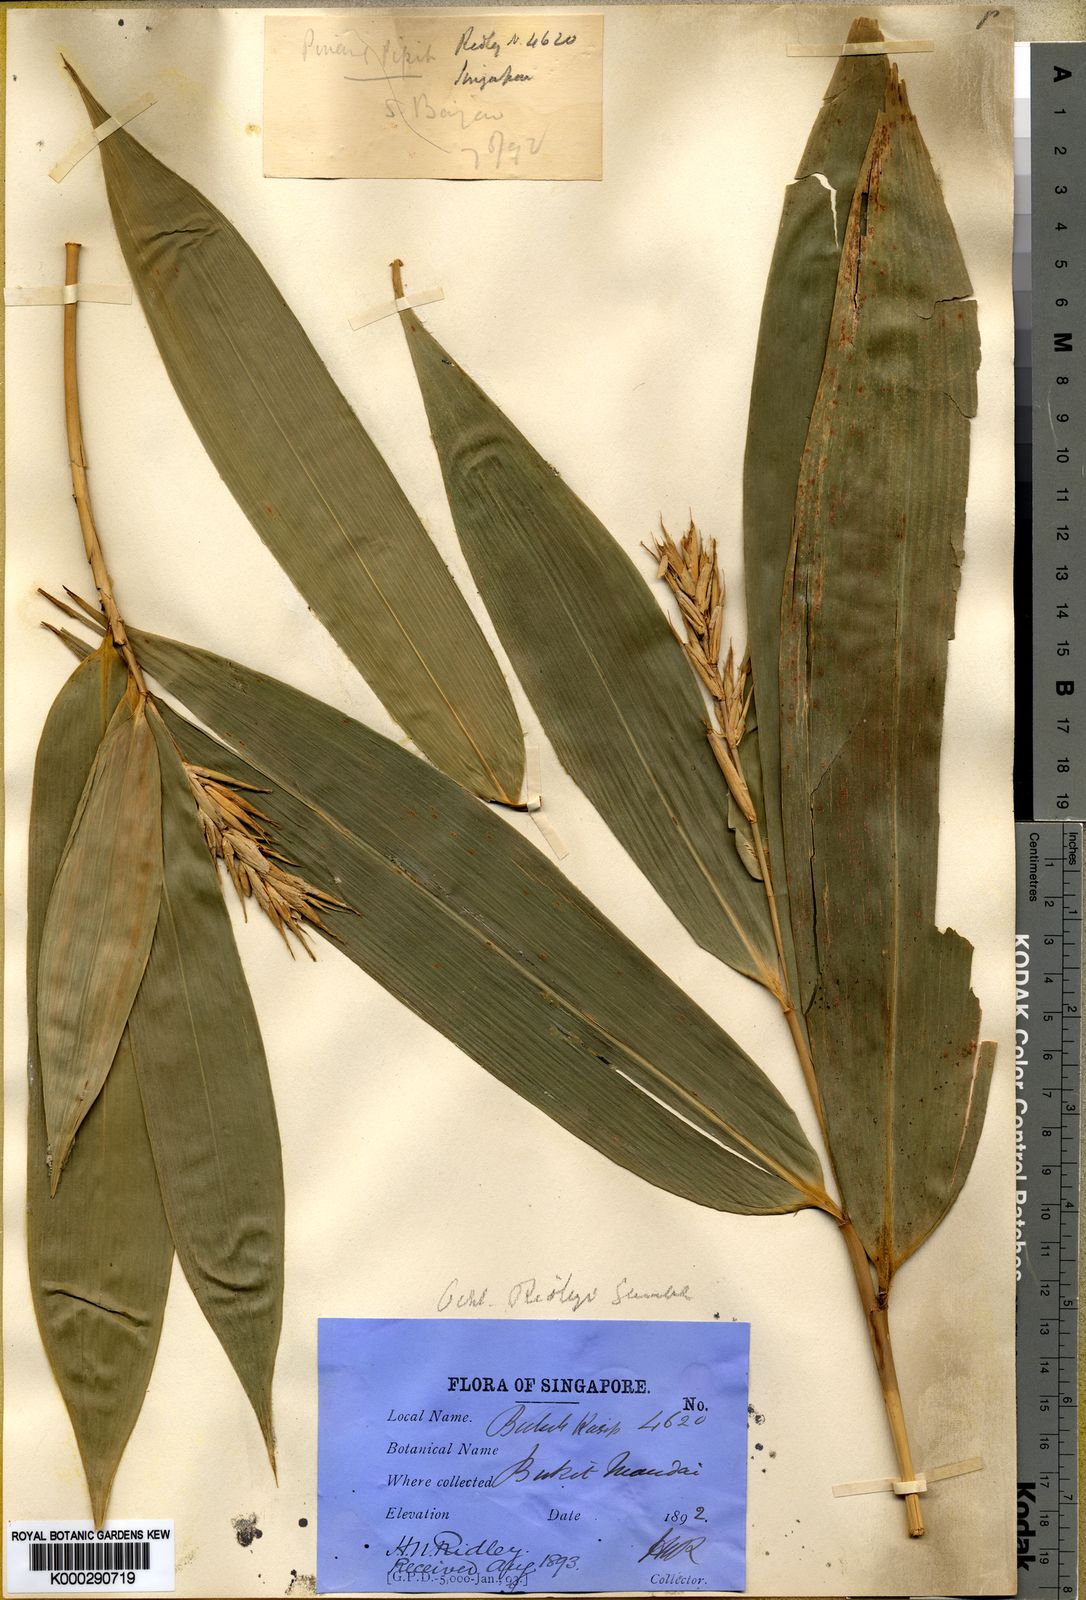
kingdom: Plantae
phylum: Tracheophyta
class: Liliopsida
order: Poales
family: Poaceae
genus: Schizostachyum
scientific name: Schizostachyum latifolium
